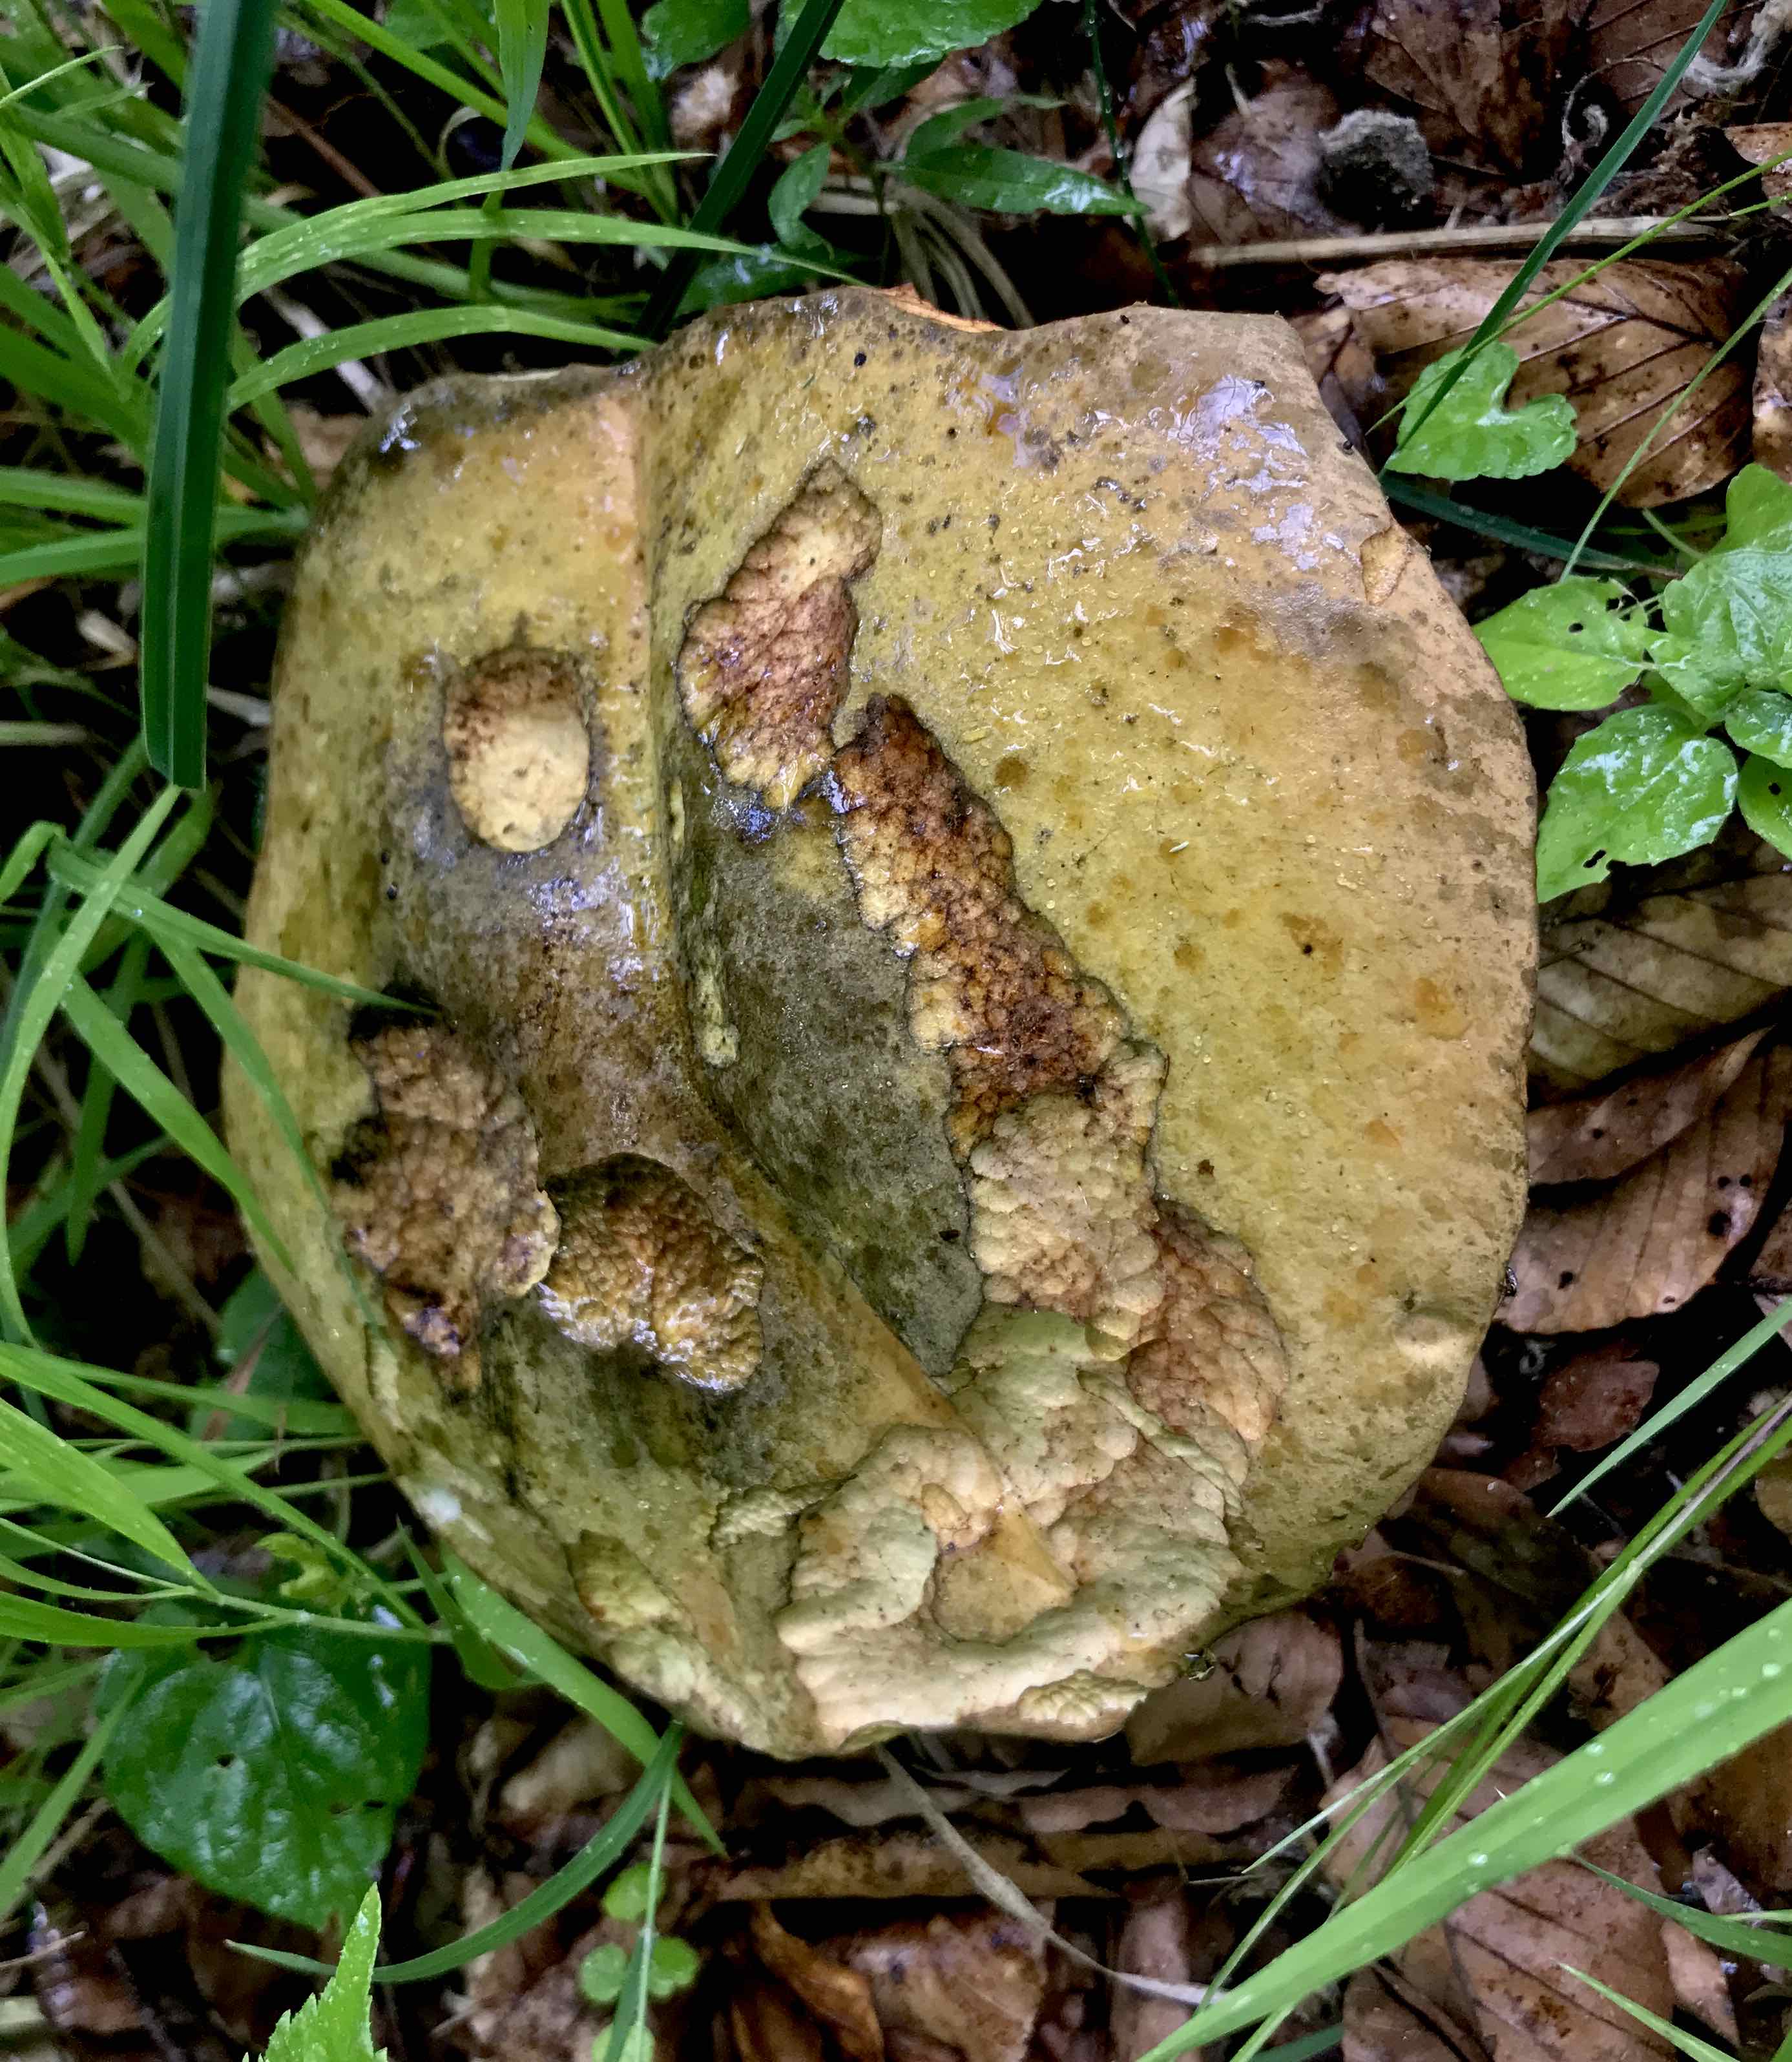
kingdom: Fungi
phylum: Basidiomycota
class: Agaricomycetes
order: Boletales
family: Boletaceae
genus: Suillellus
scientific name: Suillellus luridus
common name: netstokket indigorørhat
